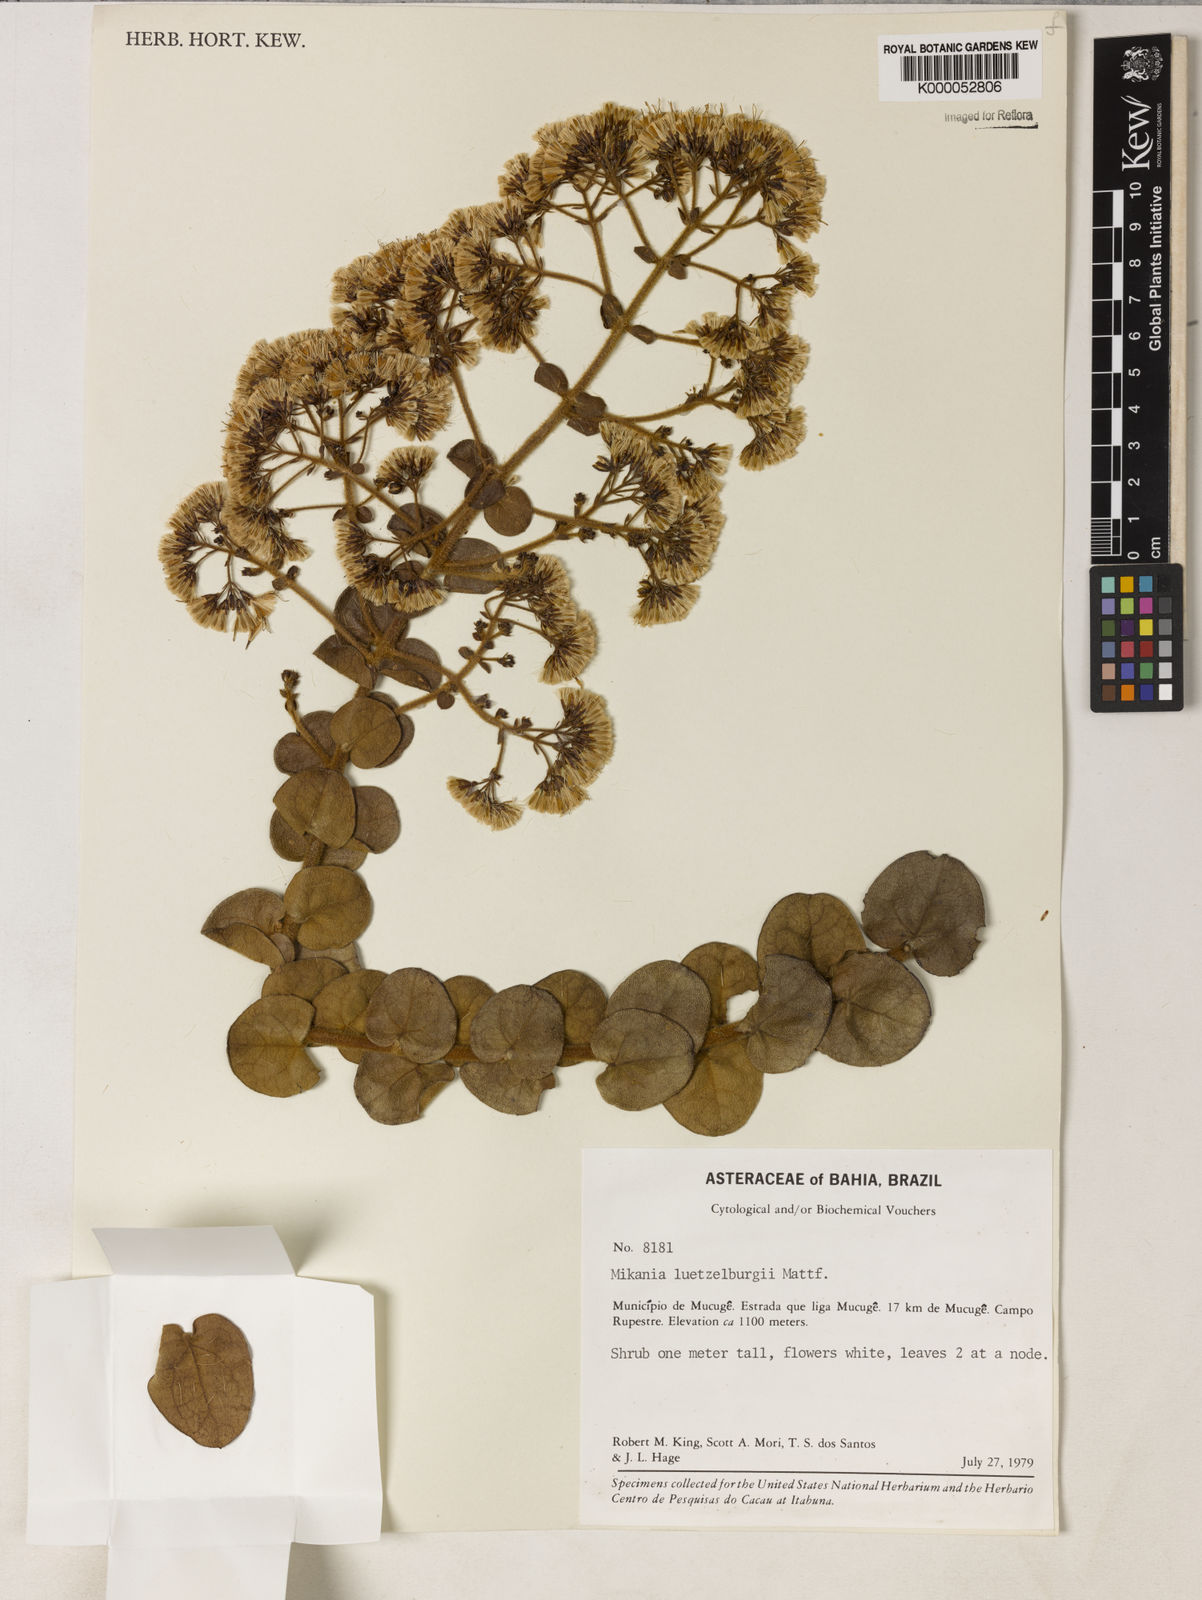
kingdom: Plantae
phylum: Tracheophyta
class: Magnoliopsida
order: Asterales
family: Asteraceae
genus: Mikania
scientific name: Mikania luetzelburgii
